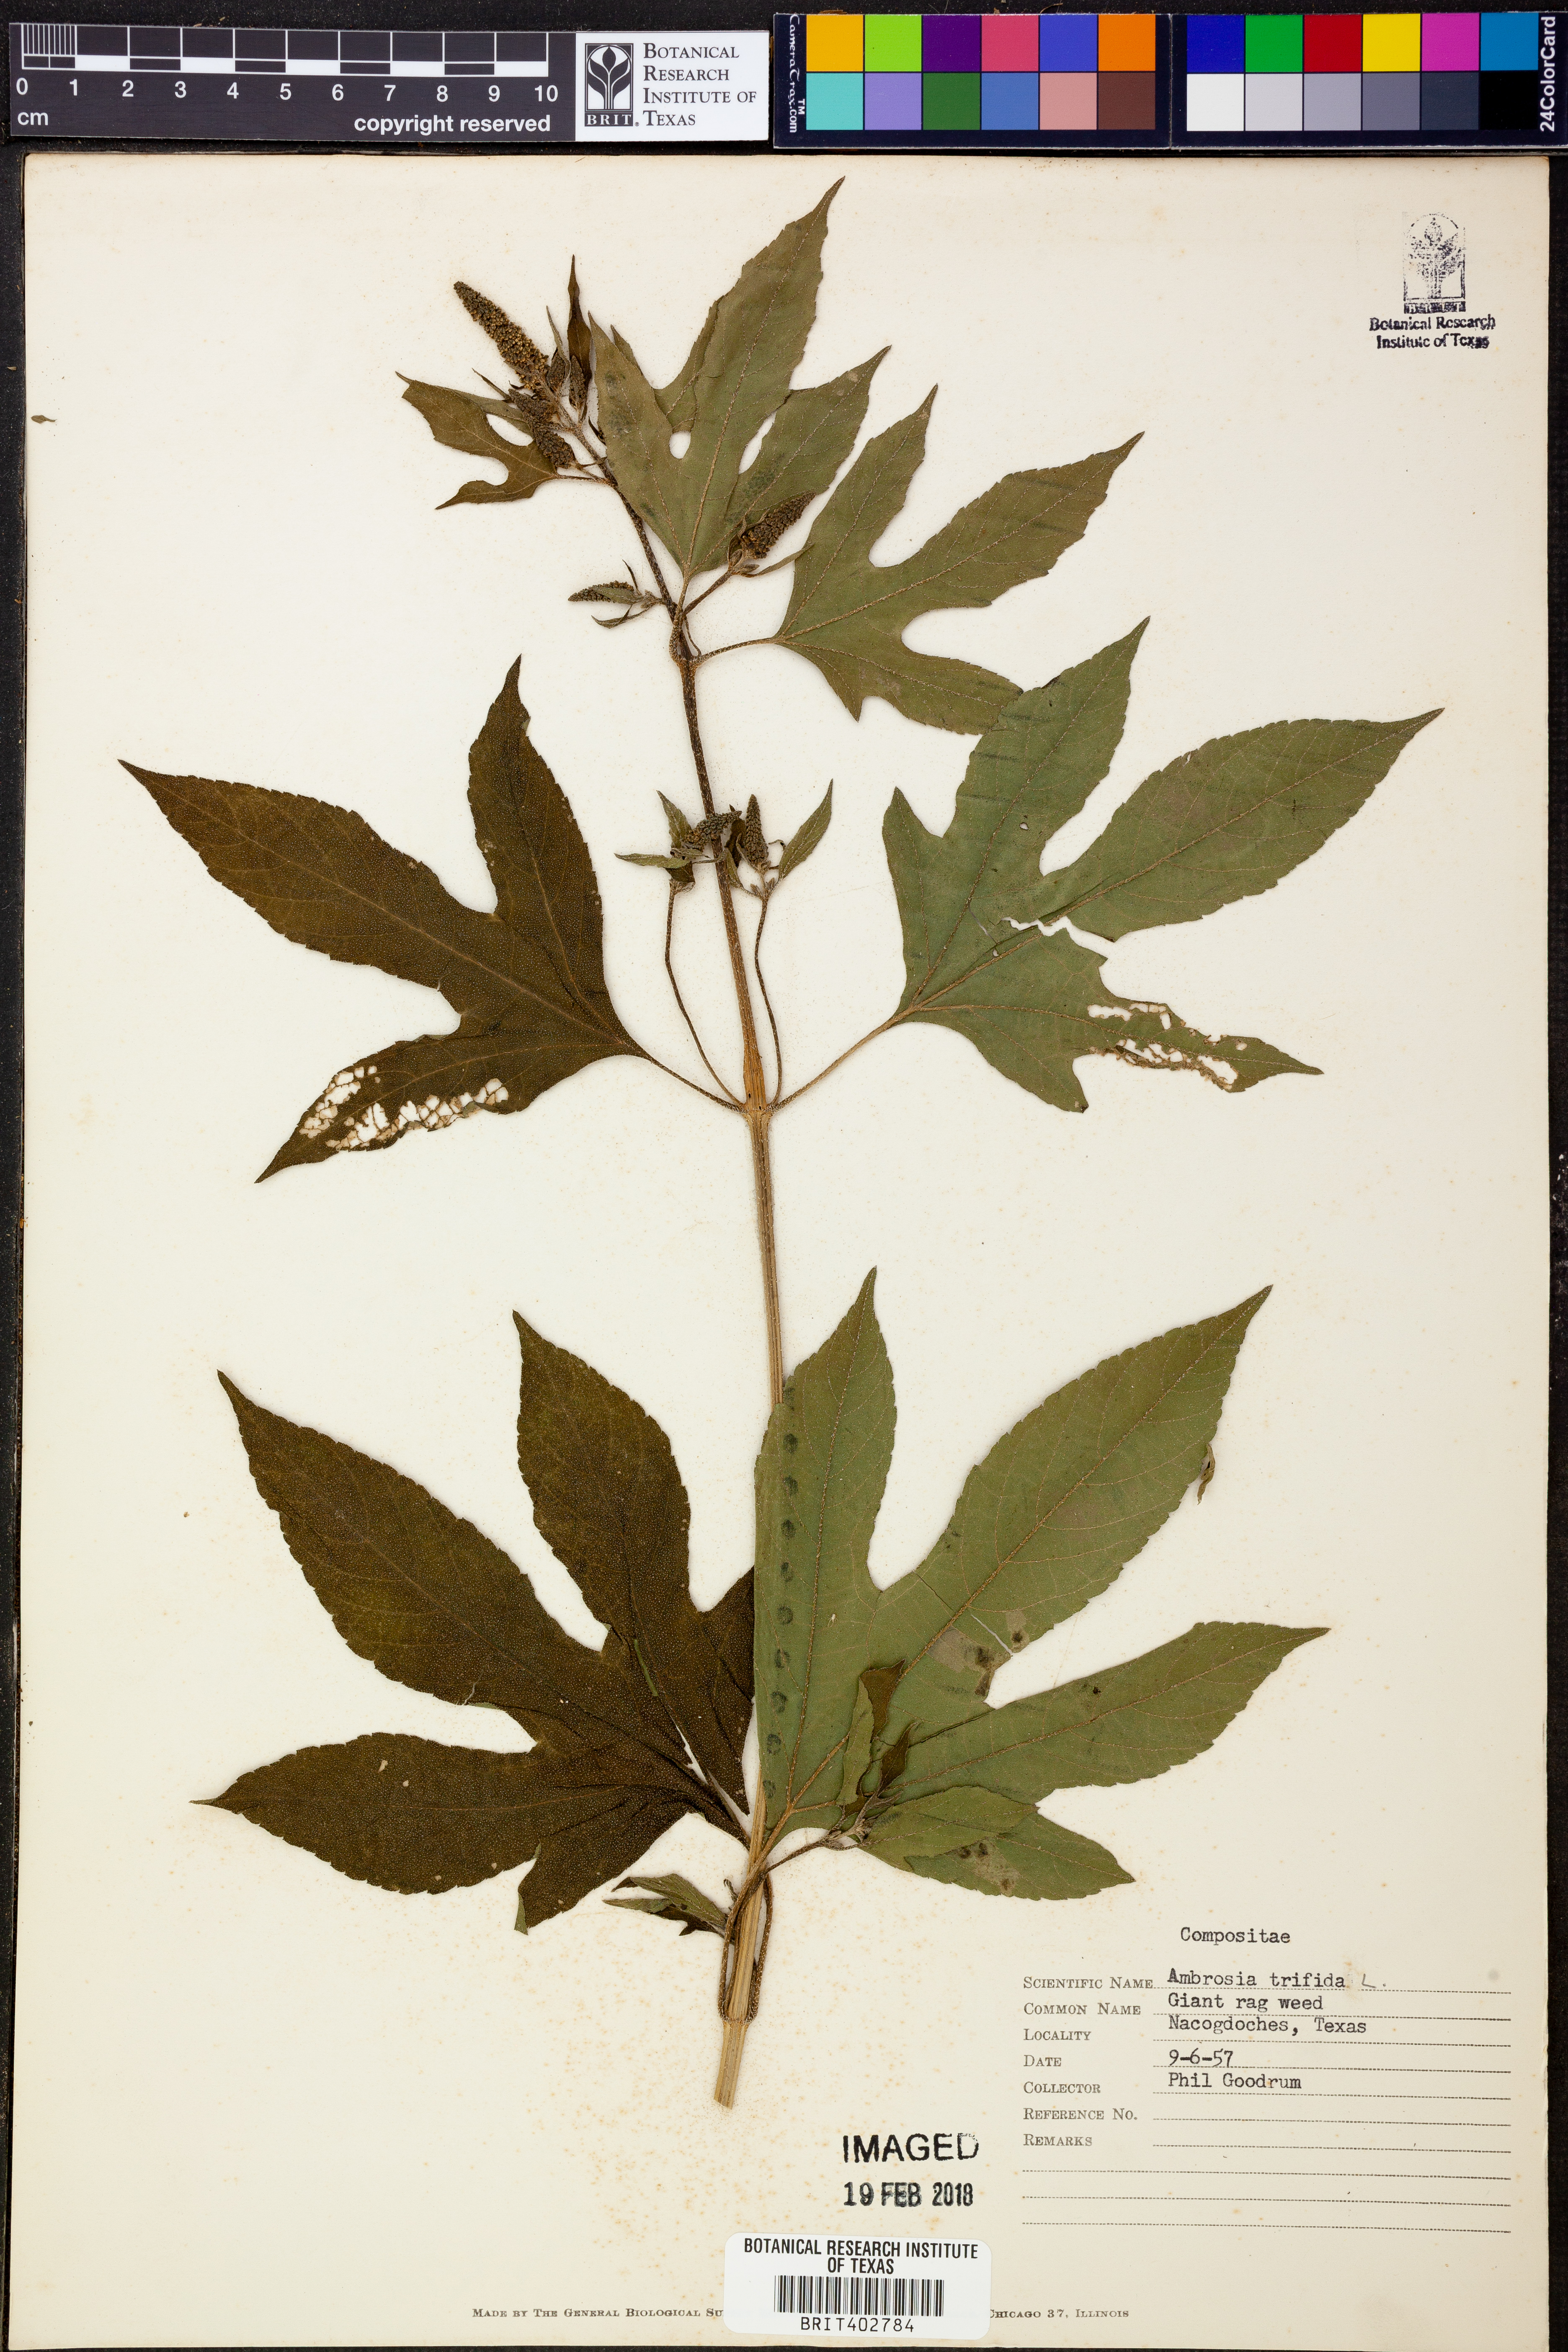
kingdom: Plantae
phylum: Tracheophyta
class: Magnoliopsida
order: Asterales
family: Asteraceae
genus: Ambrosia
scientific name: Ambrosia trifida
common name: Giant ragweed
